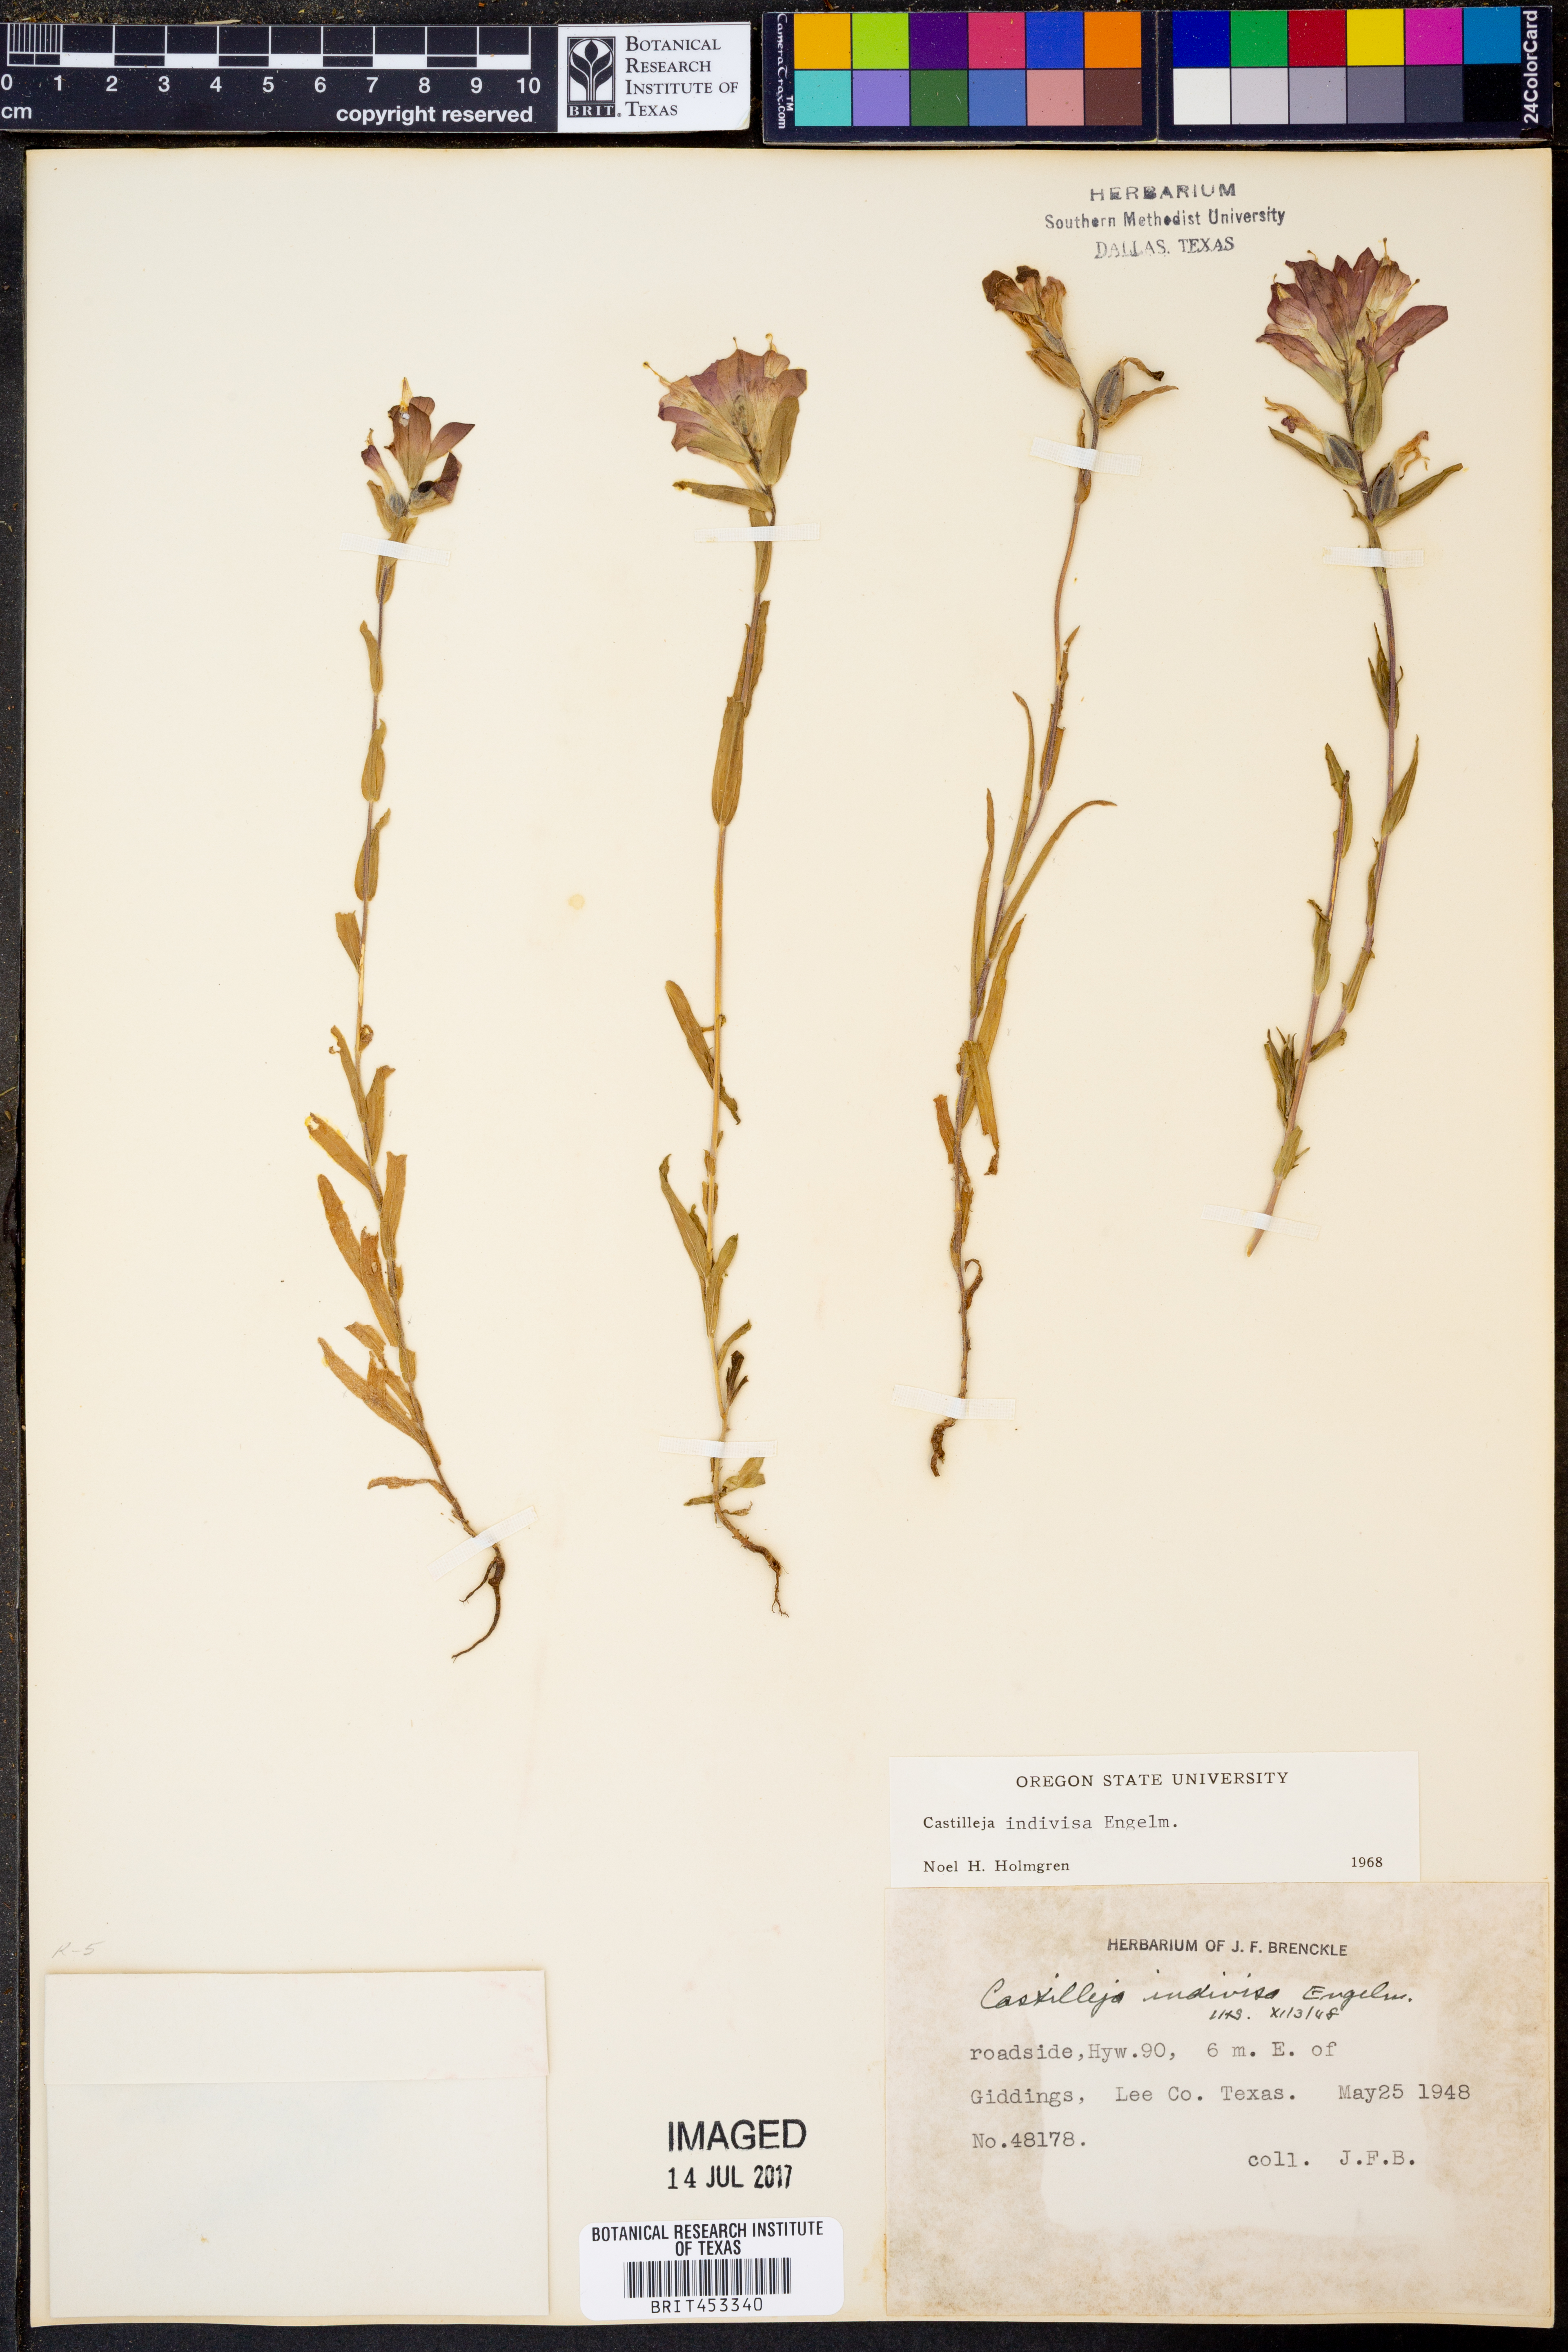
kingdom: Plantae
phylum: Tracheophyta
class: Magnoliopsida
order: Lamiales
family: Orobanchaceae
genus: Castilleja
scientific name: Castilleja indivisa
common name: Texas paintbrush
